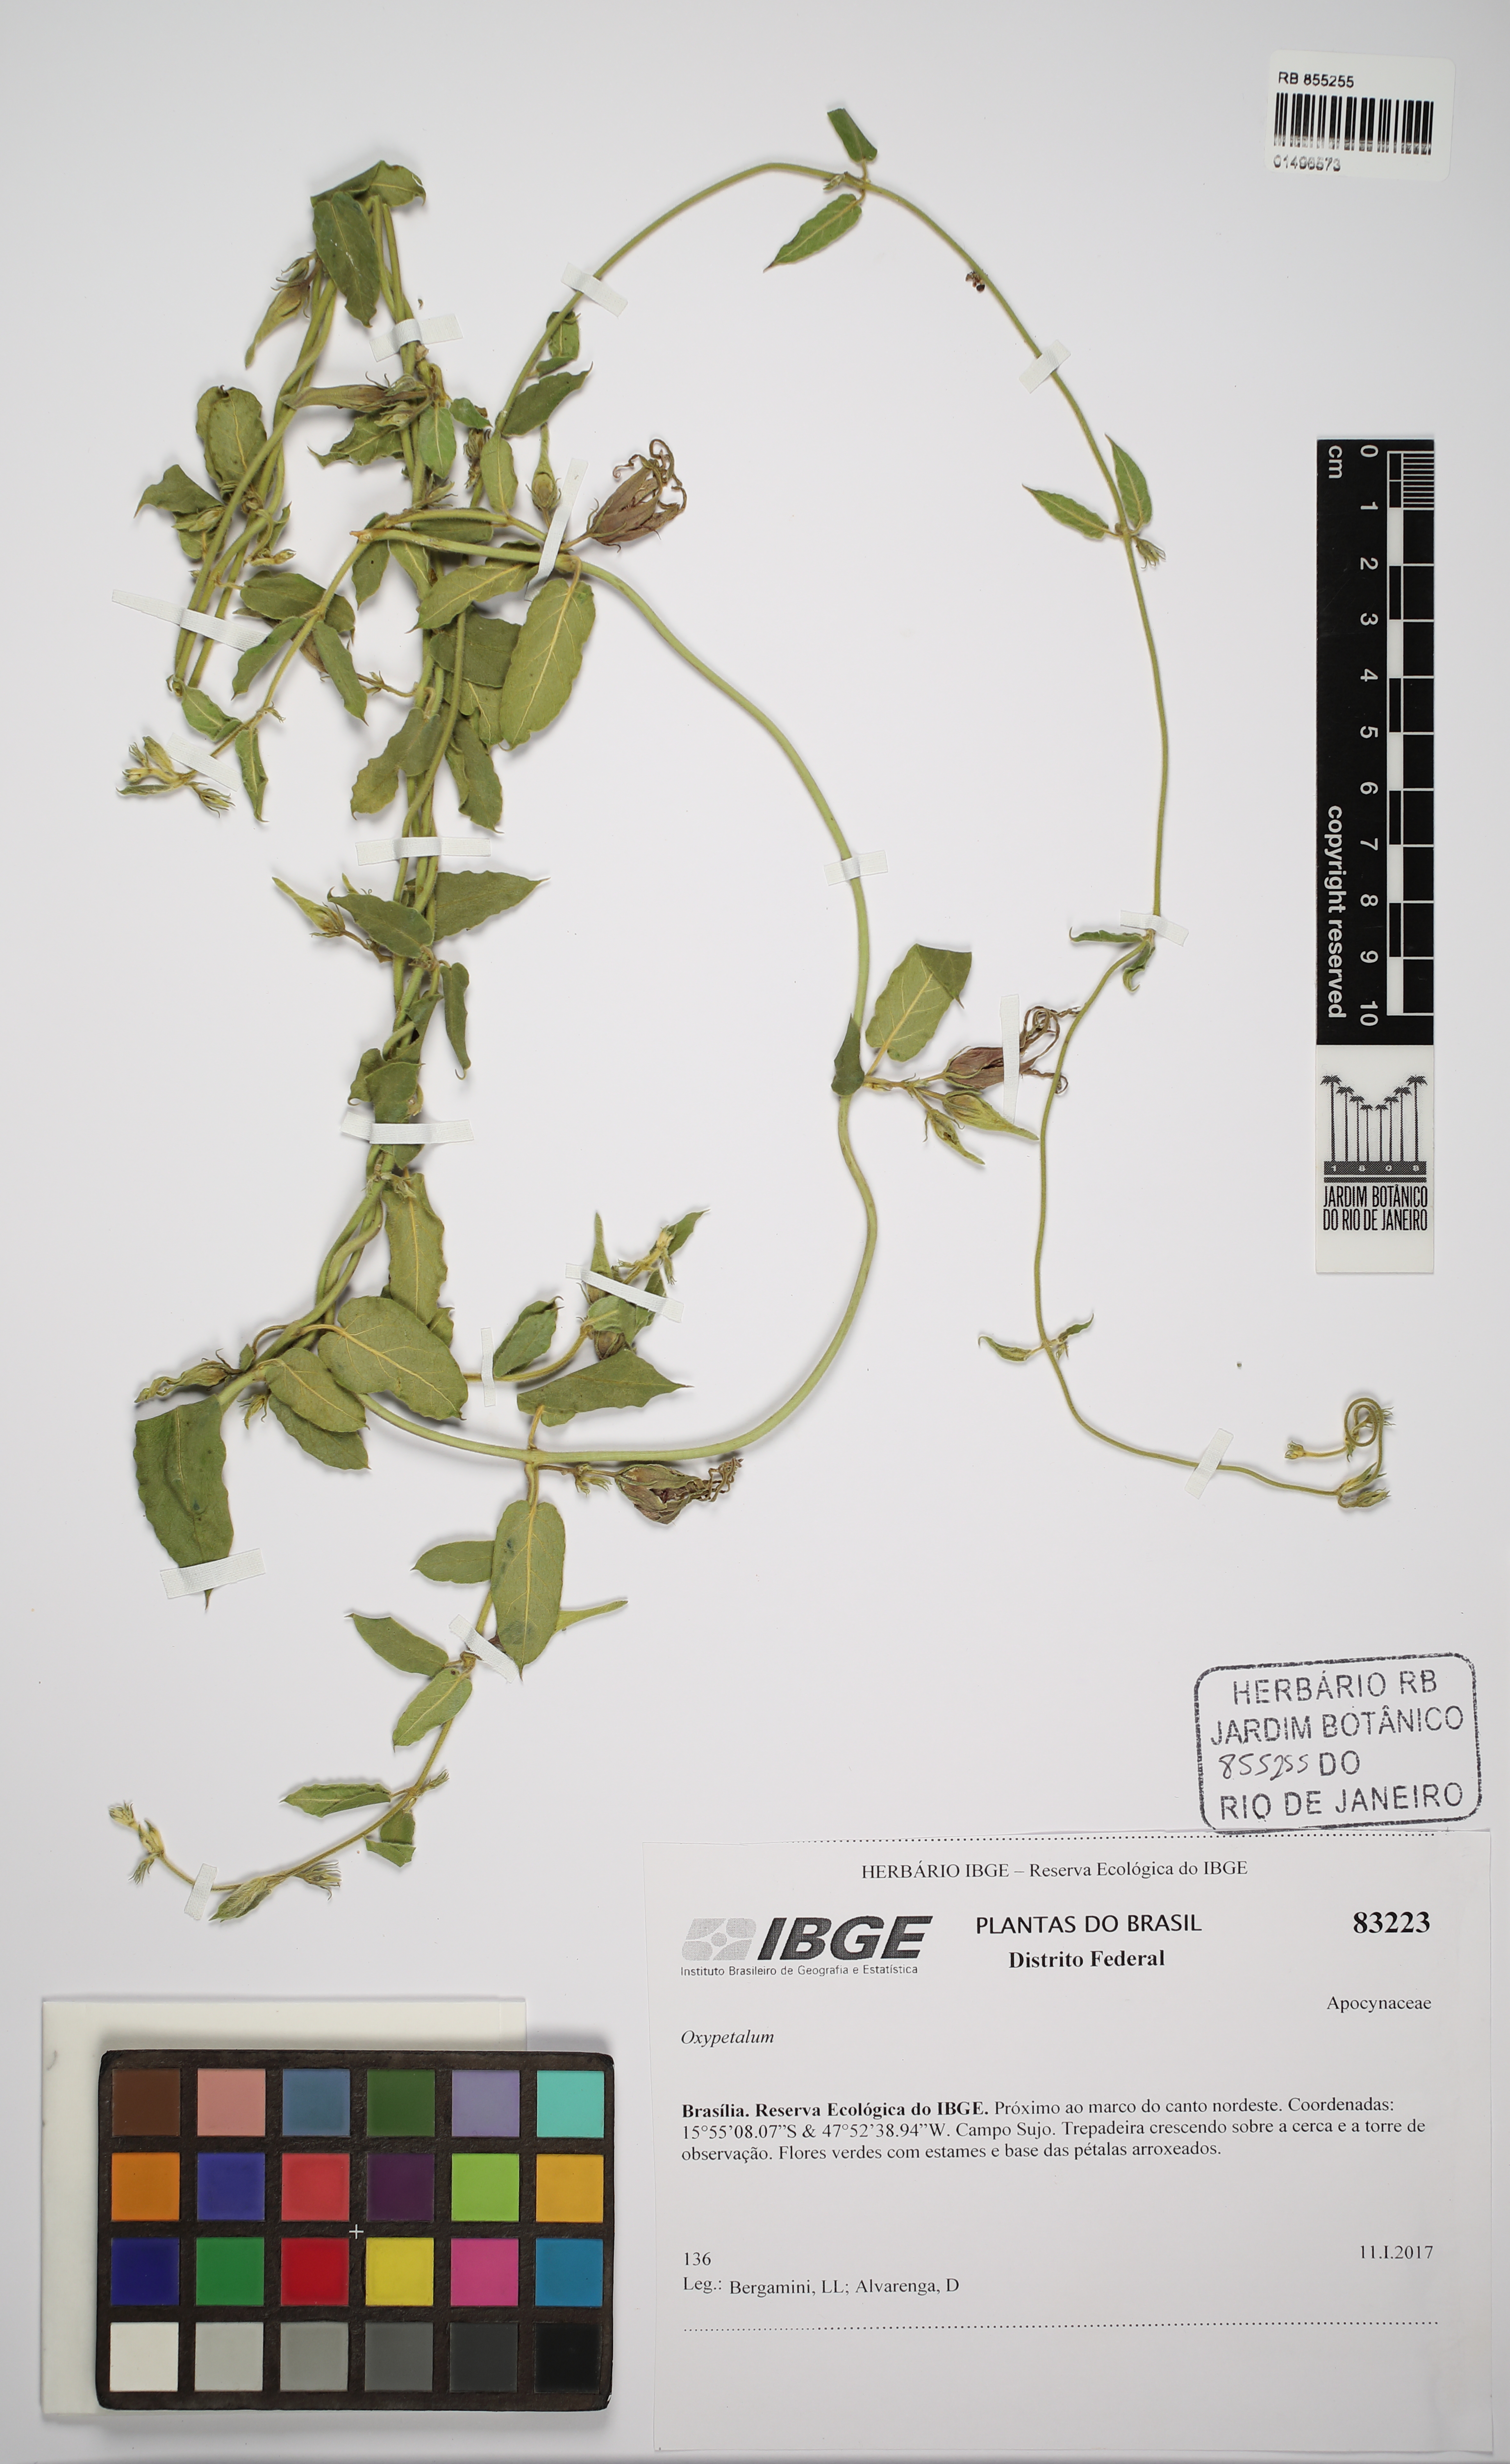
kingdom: Plantae
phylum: Tracheophyta
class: Magnoliopsida
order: Gentianales
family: Apocynaceae
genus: Oxypetalum
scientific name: Oxypetalum
